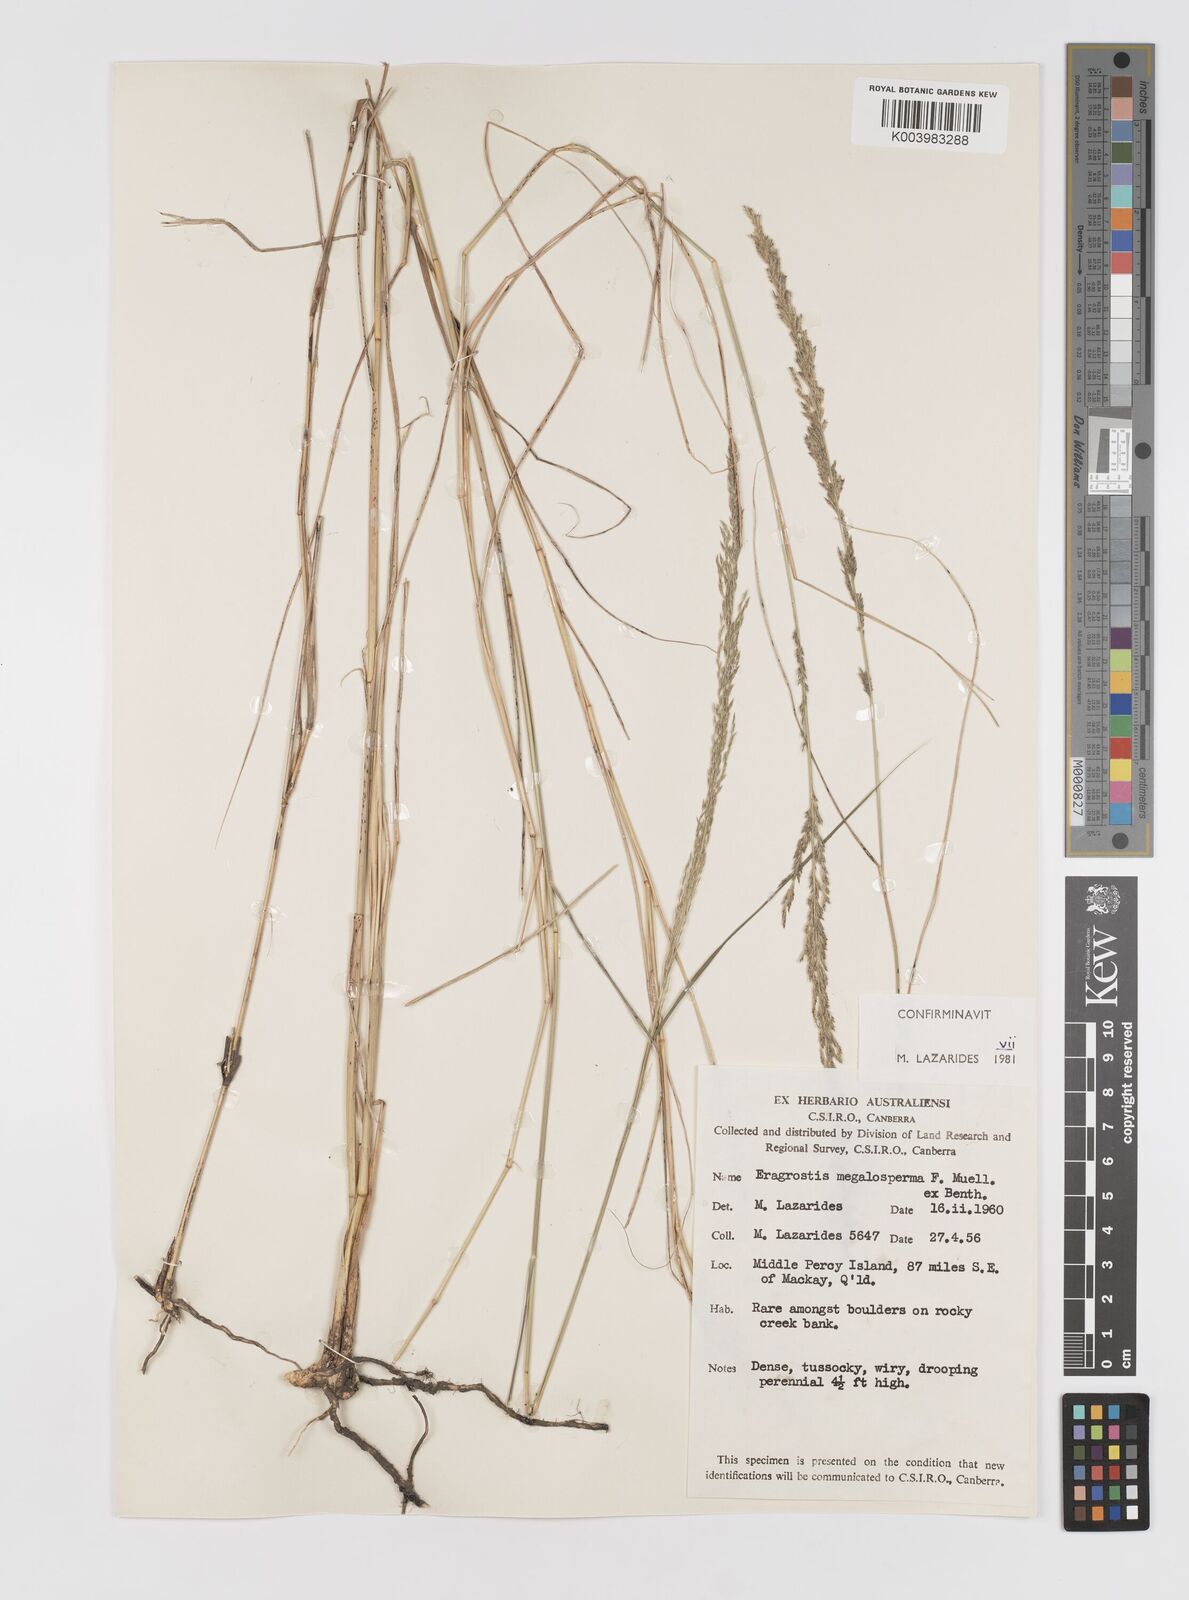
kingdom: Plantae
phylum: Tracheophyta
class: Liliopsida
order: Poales
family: Poaceae
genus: Sporobolus
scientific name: Sporobolus megalospermus
